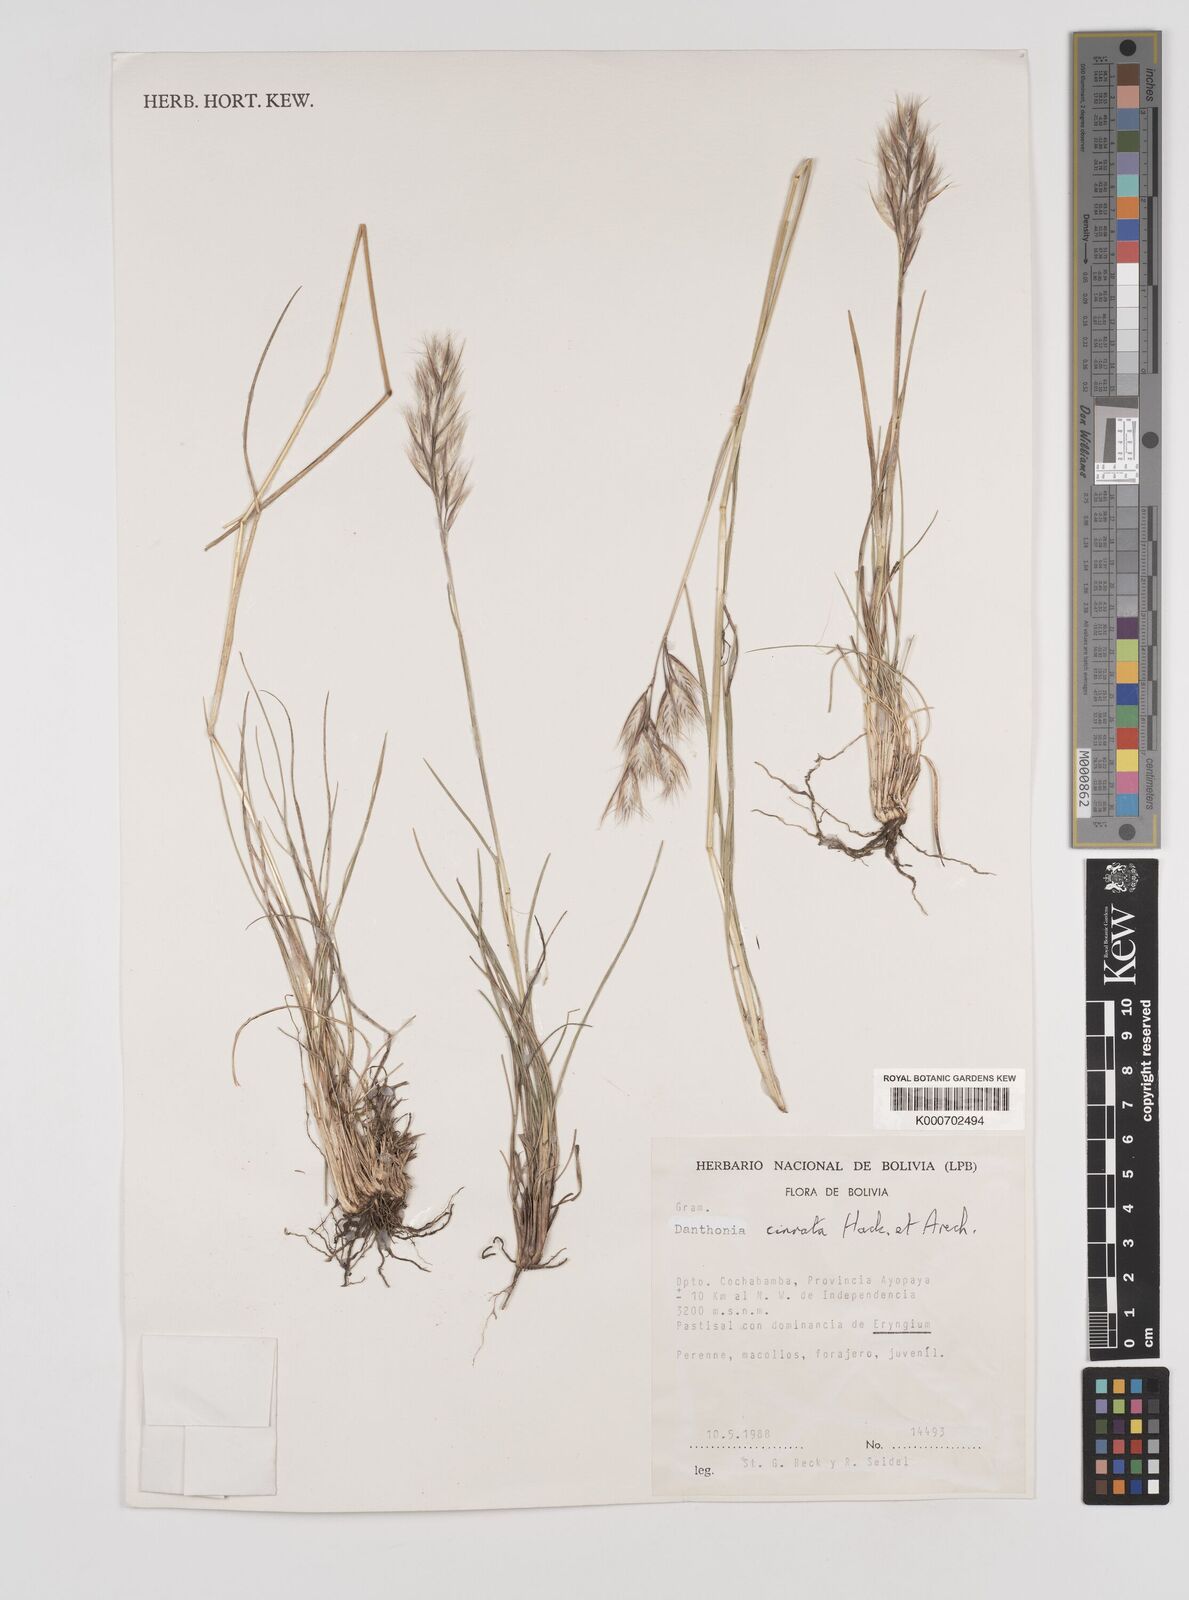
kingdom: Plantae
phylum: Tracheophyta
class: Liliopsida
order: Poales
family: Poaceae
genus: Danthonia
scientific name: Danthonia cirrata
